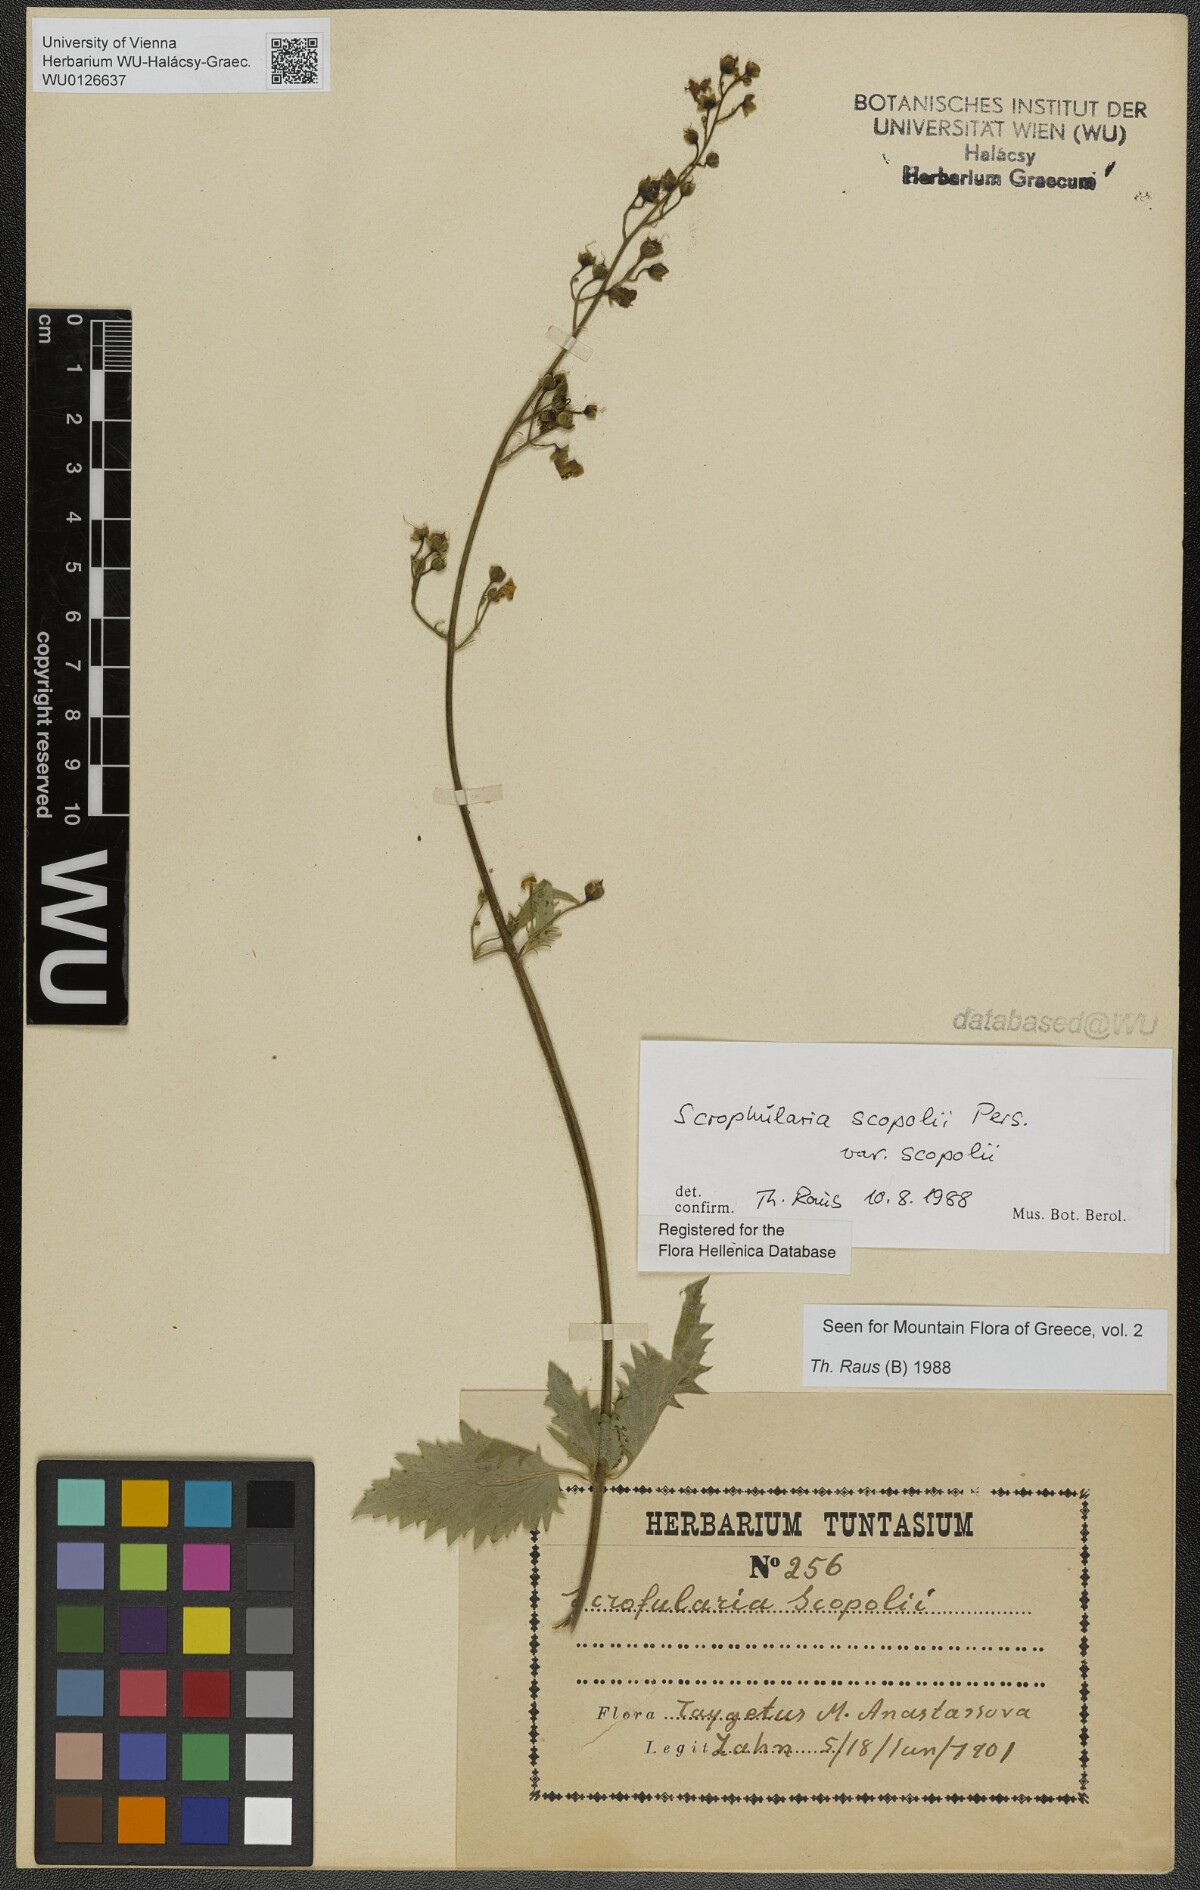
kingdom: Plantae
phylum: Tracheophyta
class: Magnoliopsida
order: Lamiales
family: Scrophulariaceae
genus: Scrophularia
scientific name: Scrophularia scopolii
